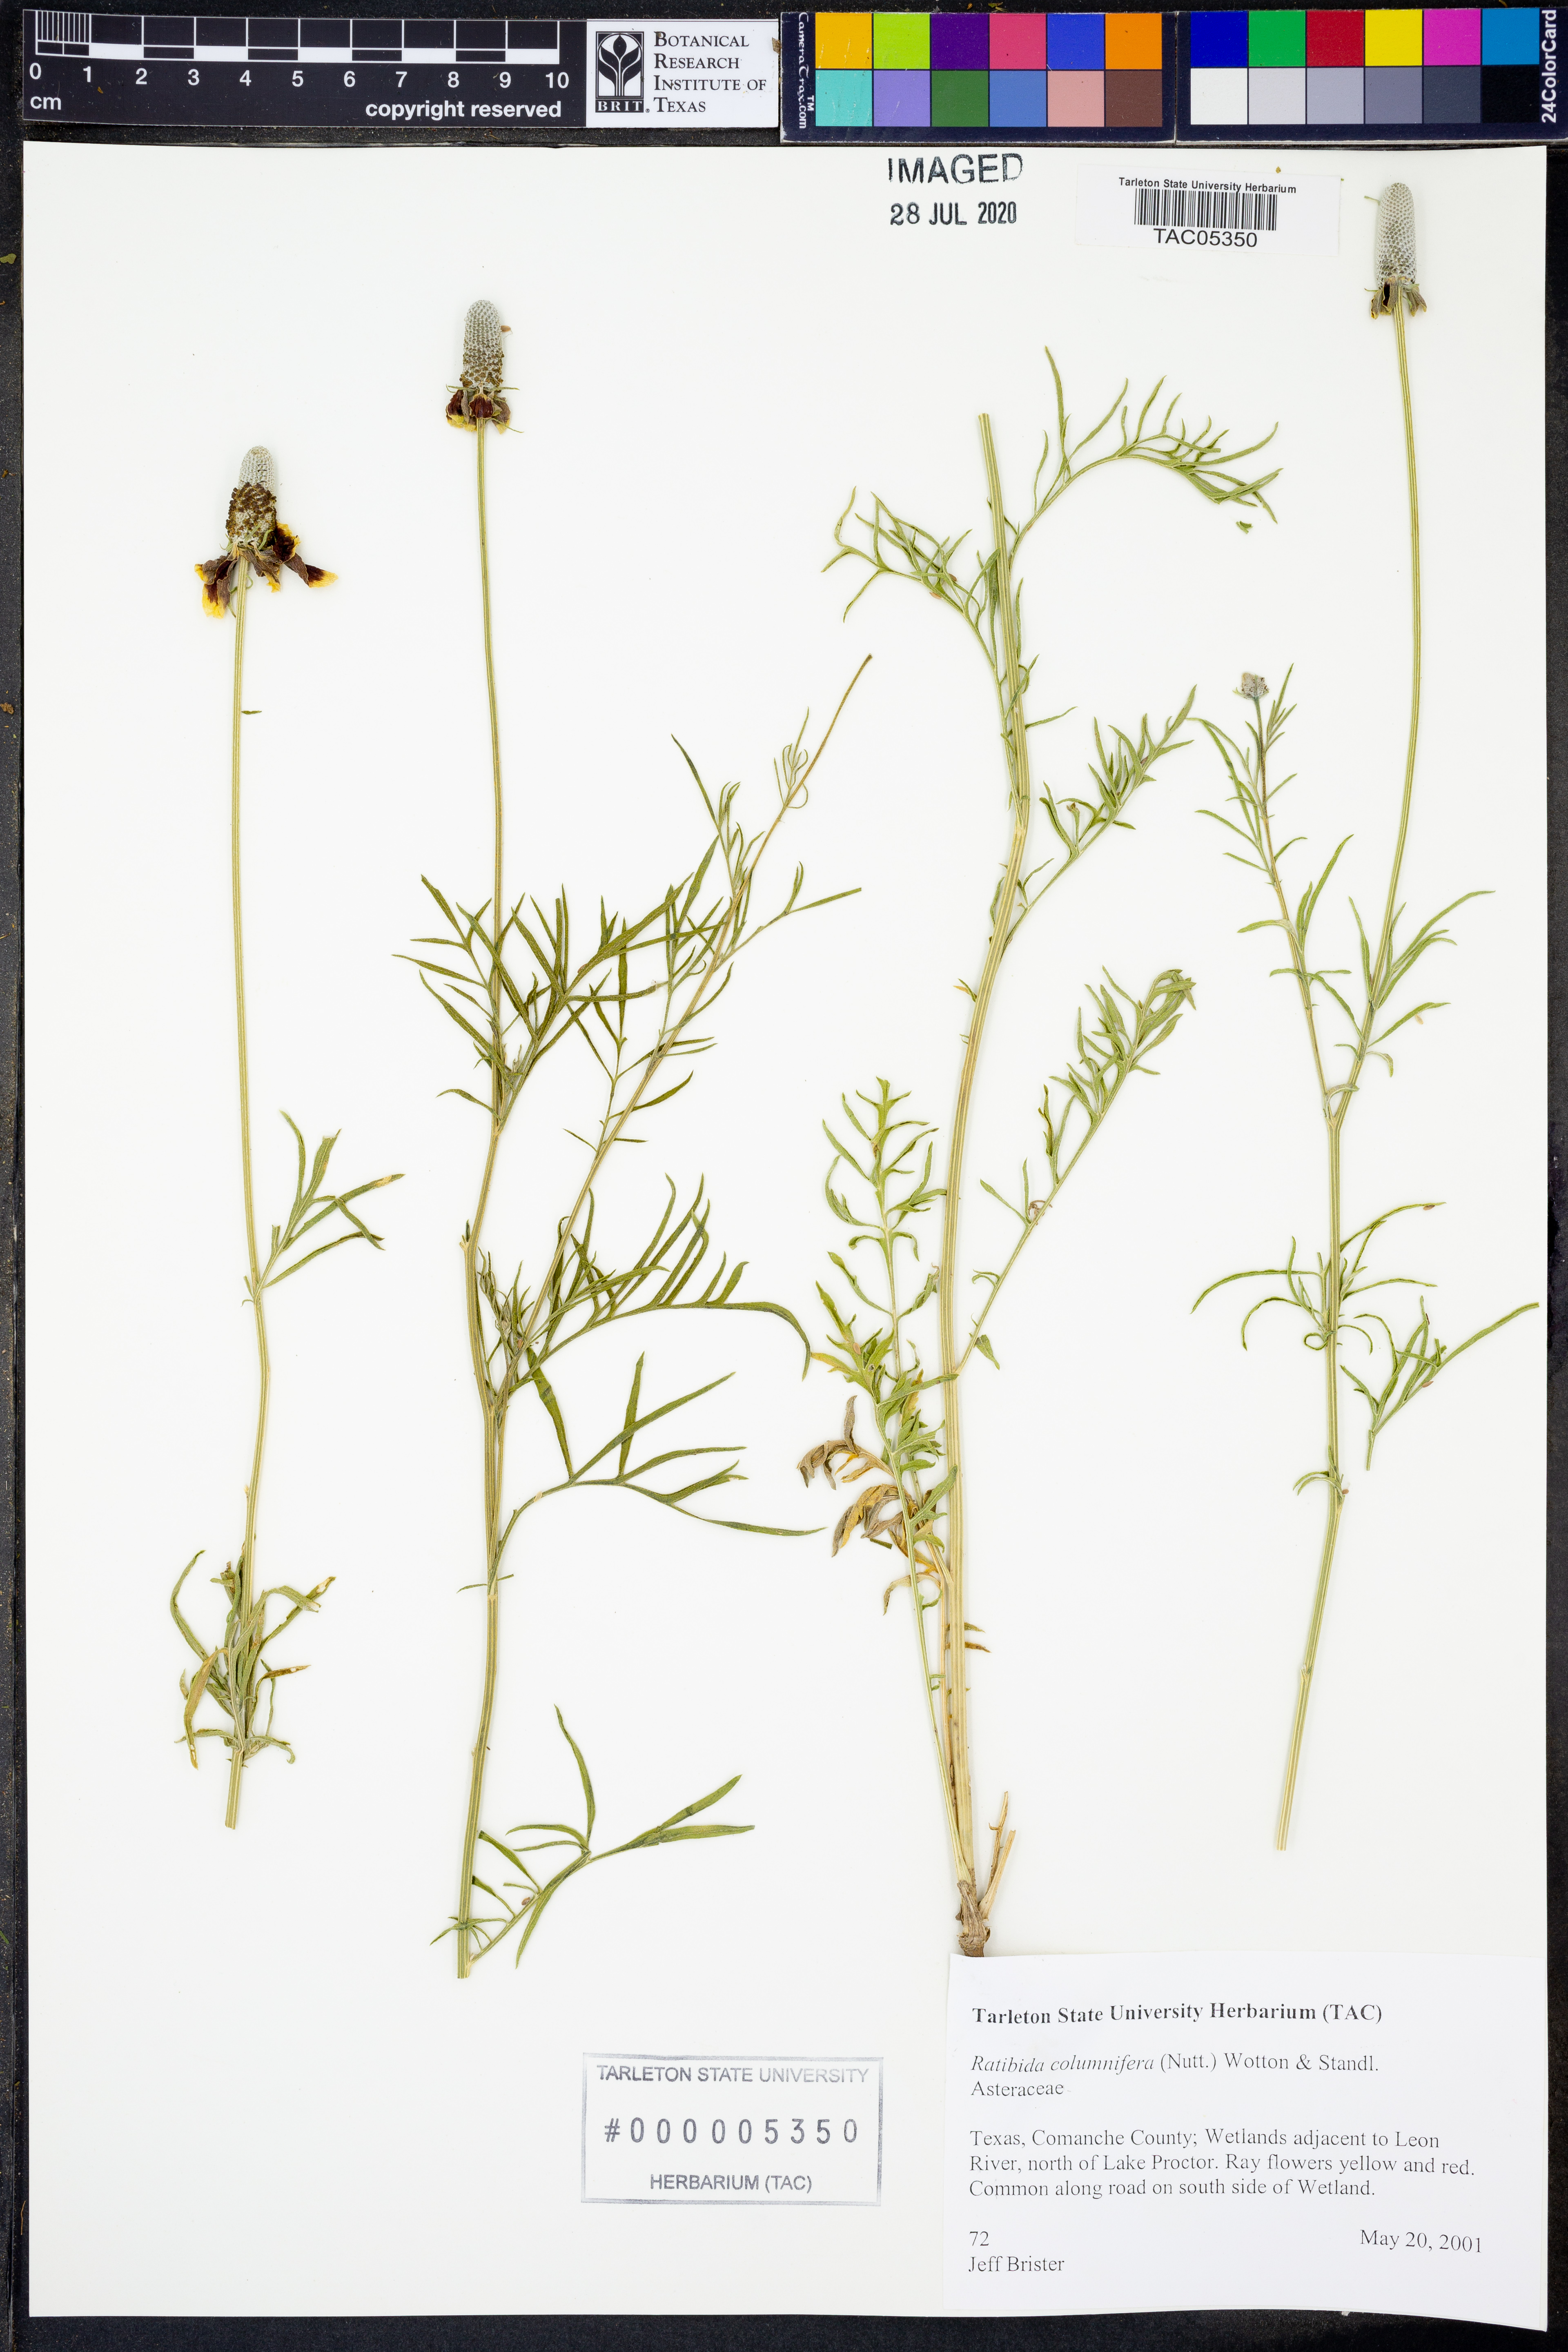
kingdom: Plantae
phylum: Tracheophyta
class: Magnoliopsida
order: Asterales
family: Asteraceae
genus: Ratibida
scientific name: Ratibida columnifera
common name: Prairie coneflower
